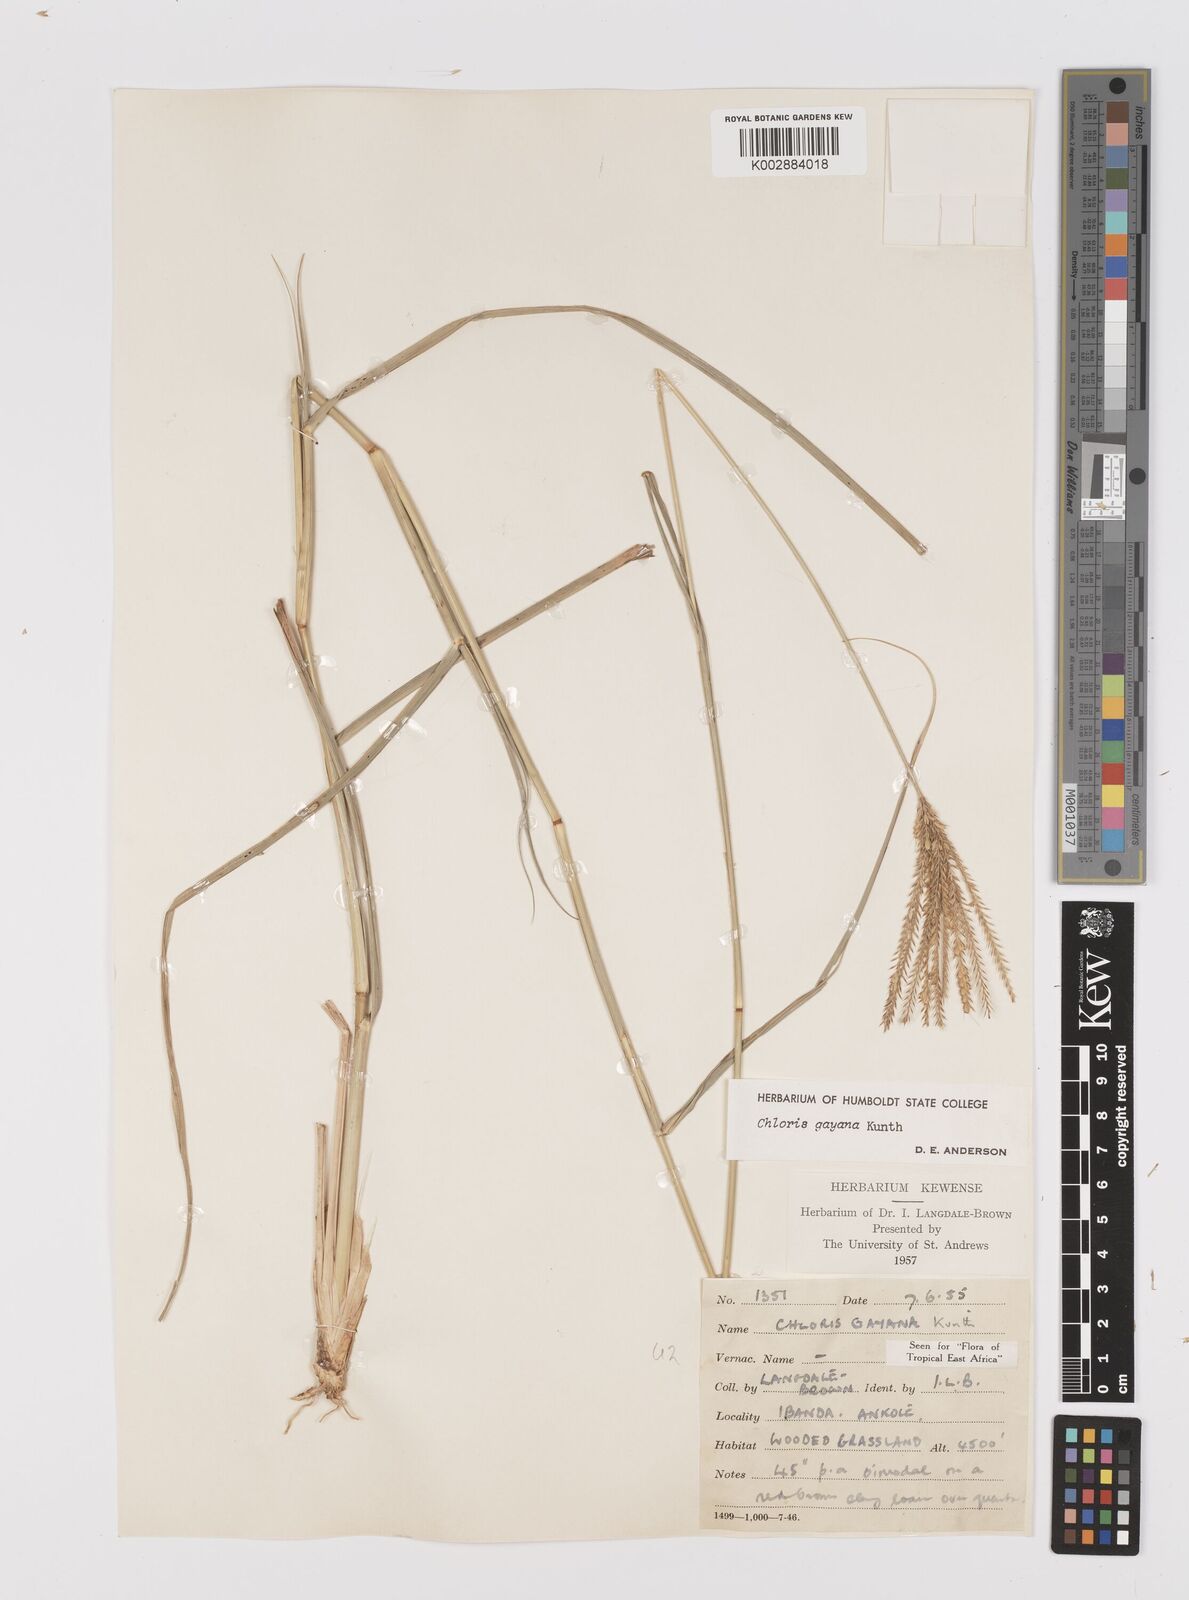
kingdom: Plantae
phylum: Tracheophyta
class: Liliopsida
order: Poales
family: Poaceae
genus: Chloris
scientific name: Chloris gayana
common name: Rhodes grass
